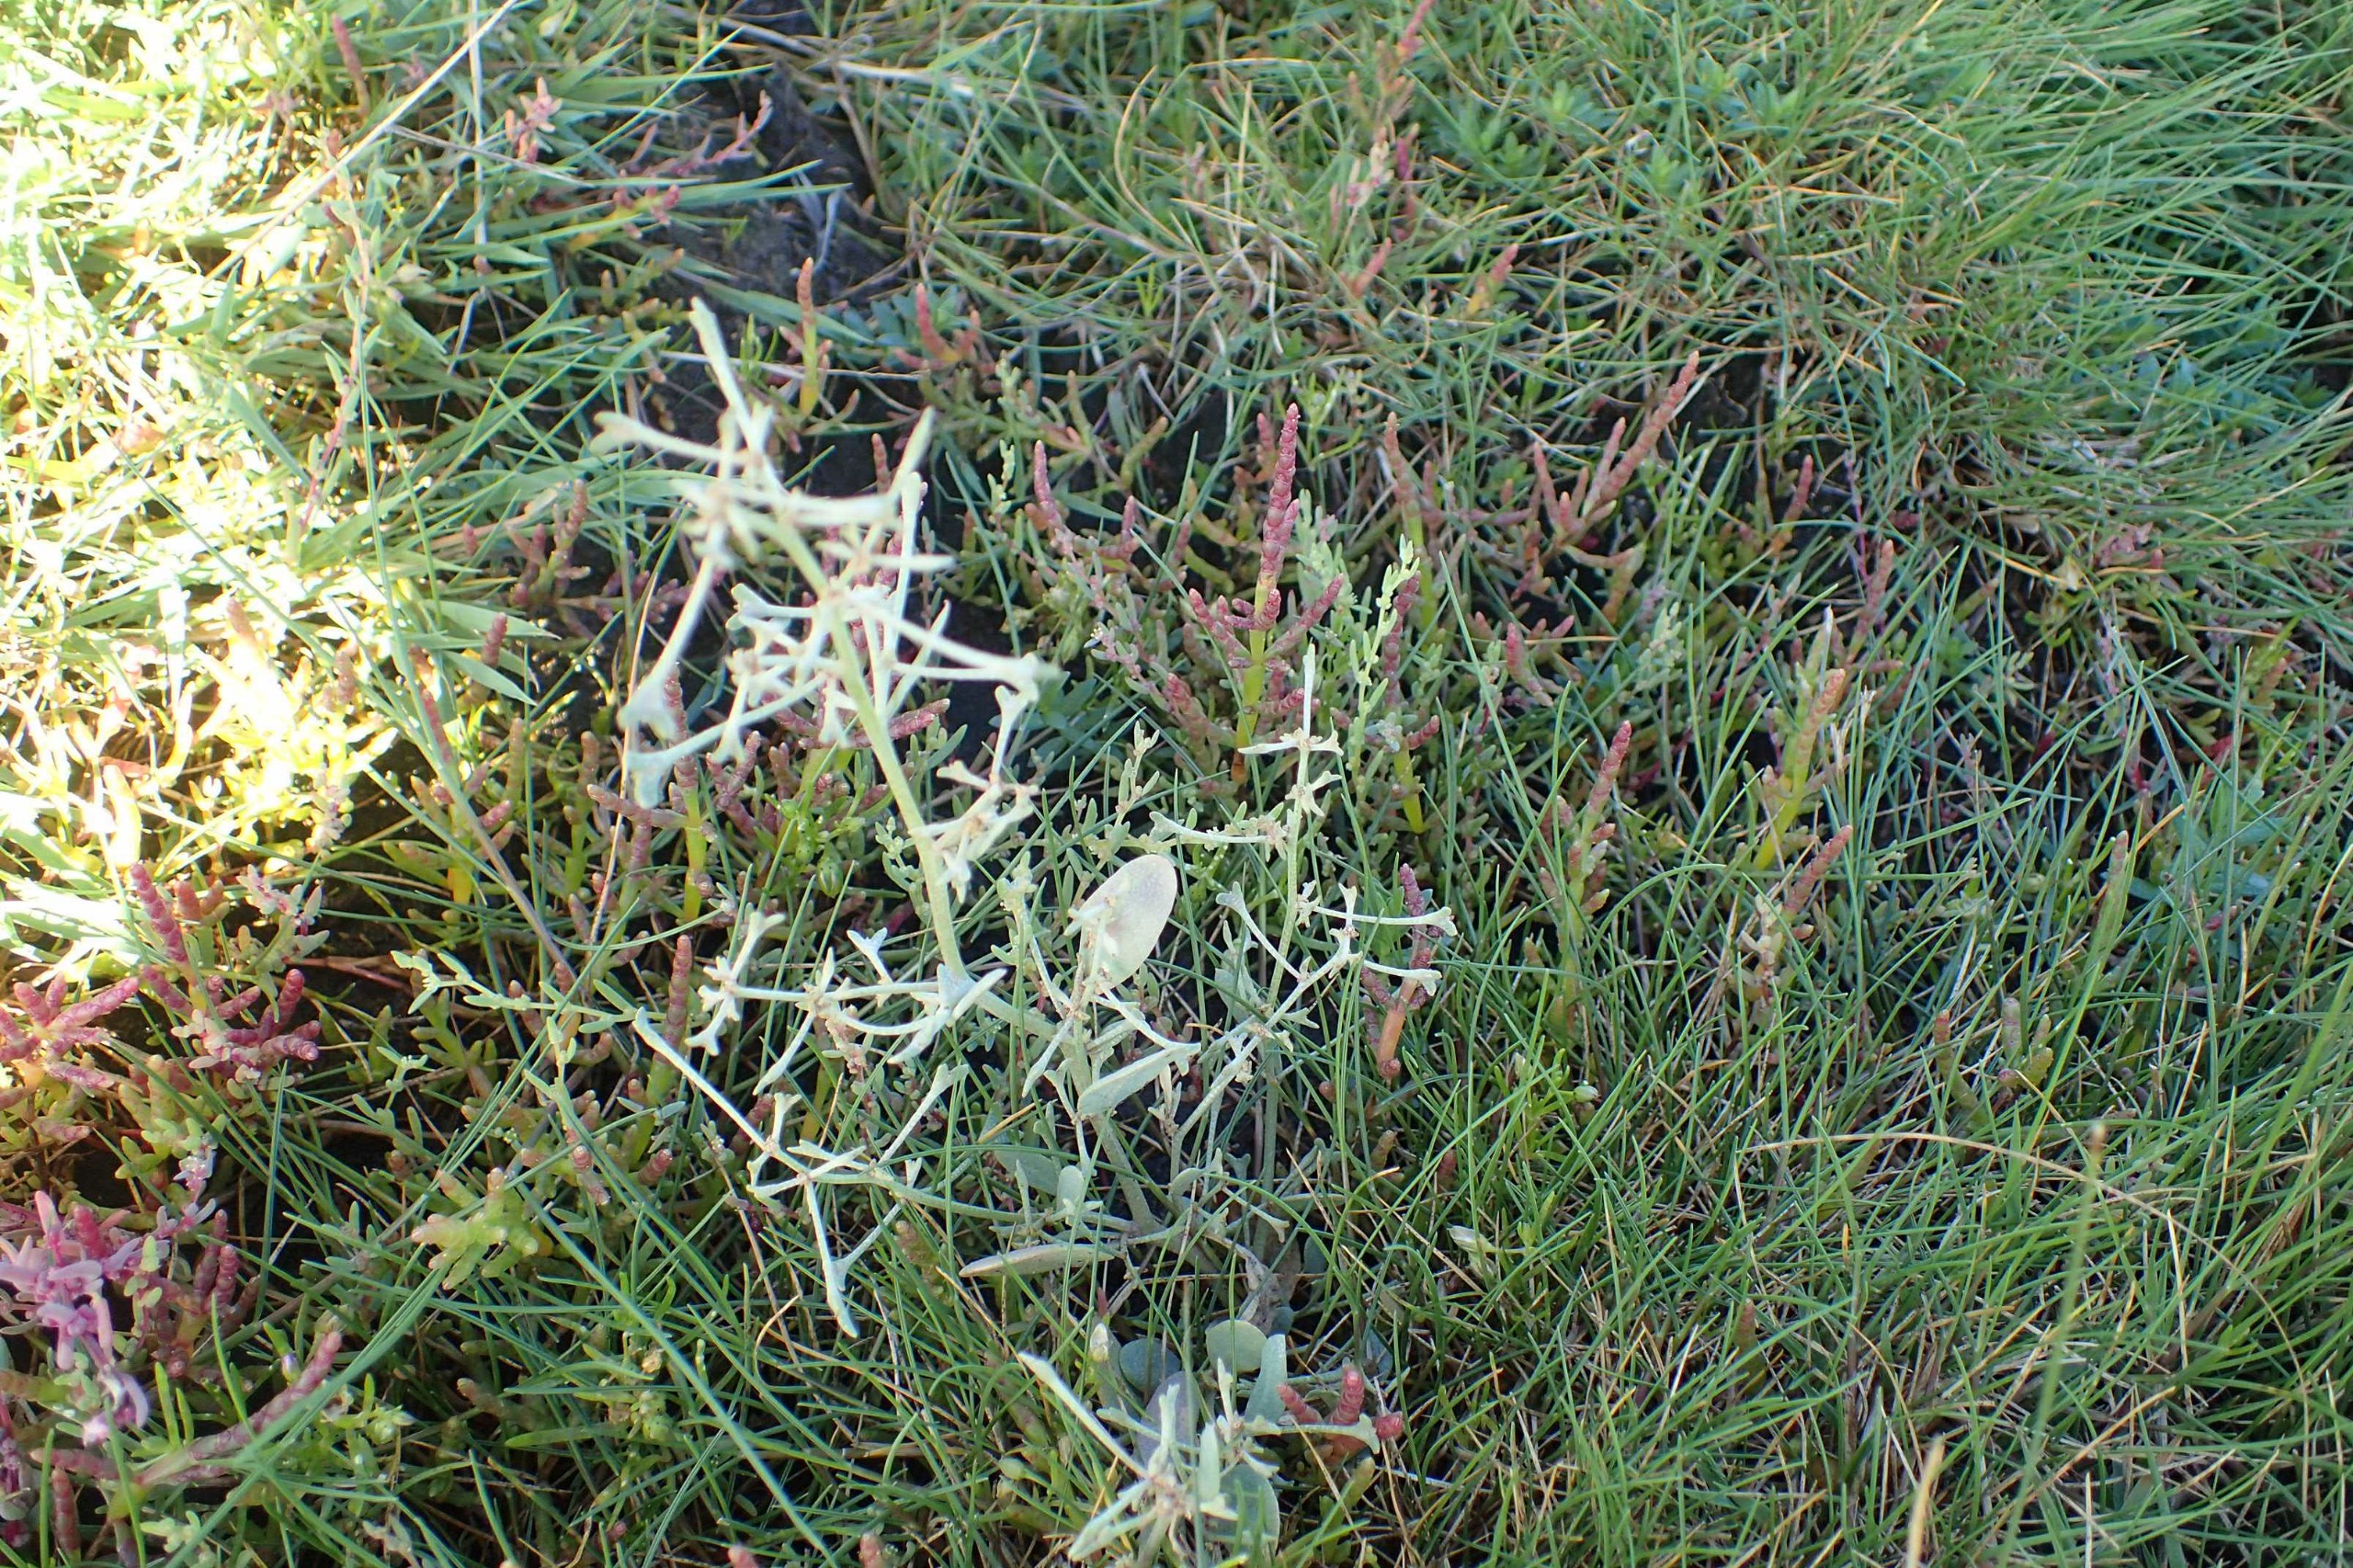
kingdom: Plantae
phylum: Tracheophyta
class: Magnoliopsida
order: Caryophyllales
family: Amaranthaceae
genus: Halimione
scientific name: Halimione pedunculata
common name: Stilket kilebæger
